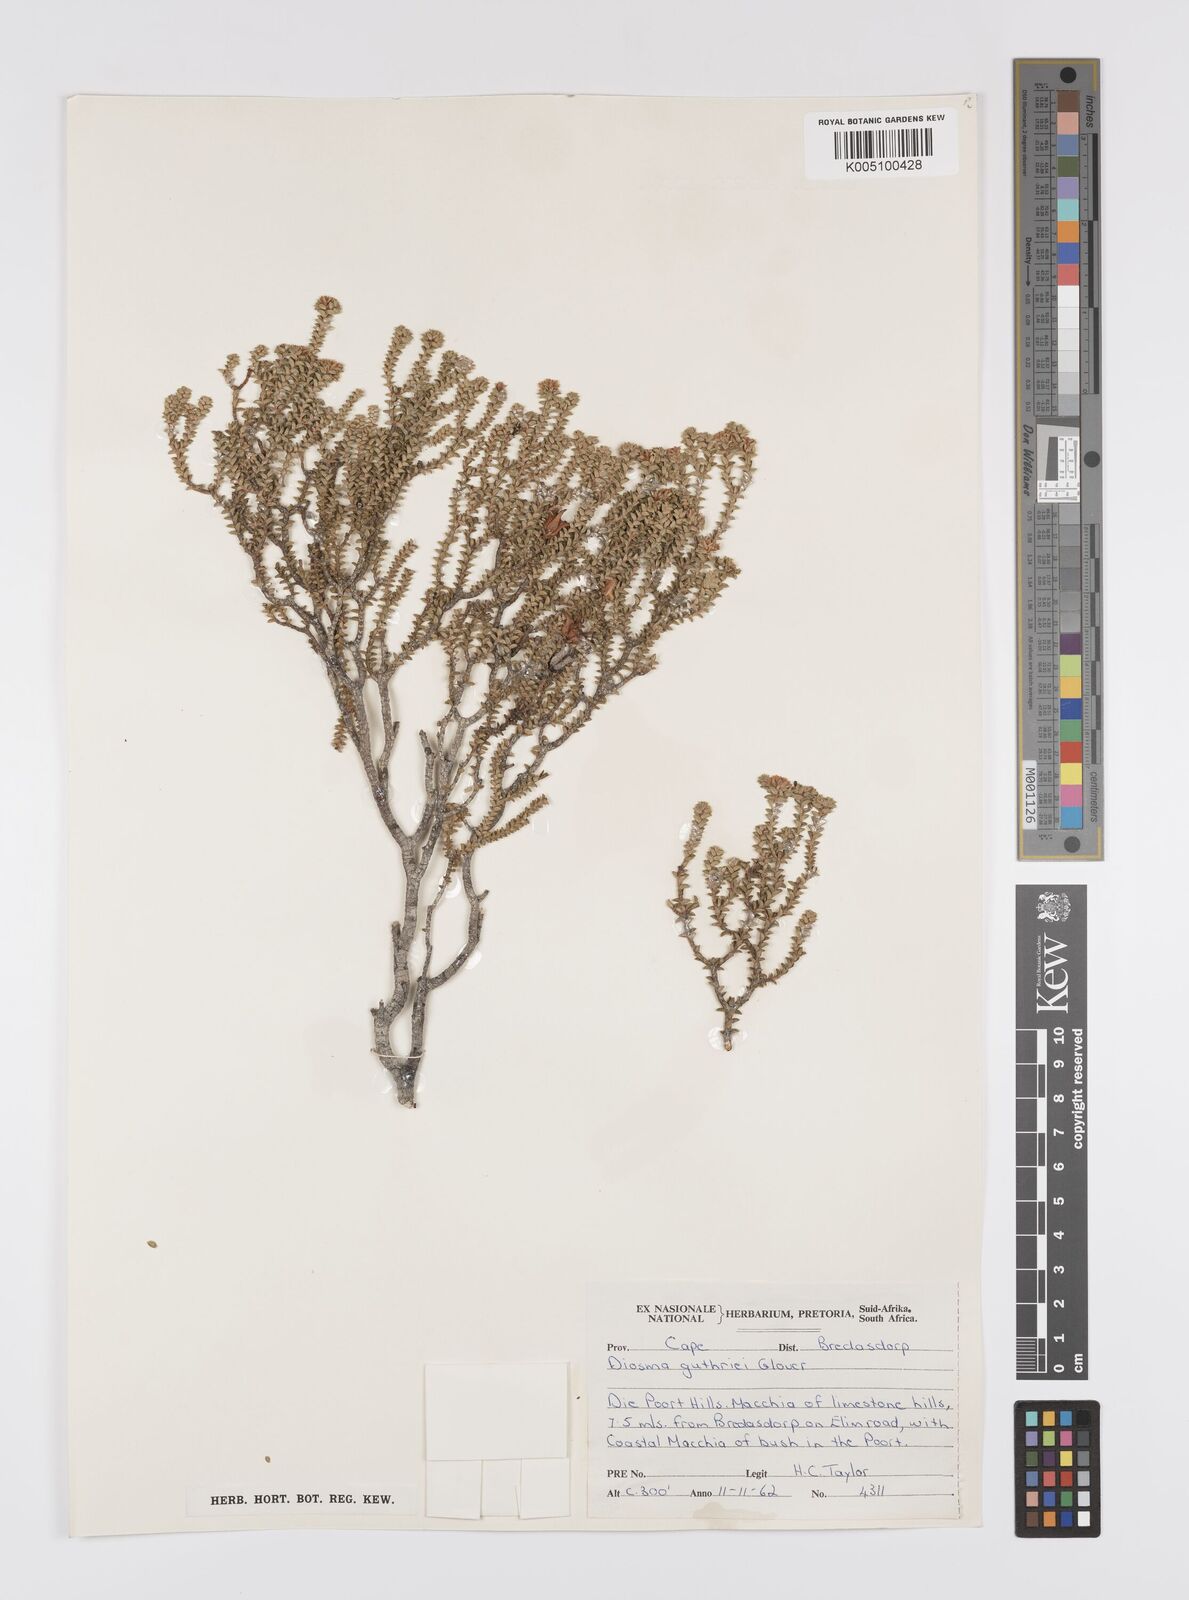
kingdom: Plantae
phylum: Tracheophyta
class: Magnoliopsida
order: Sapindales
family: Rutaceae
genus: Diosma
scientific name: Diosma guthriei
